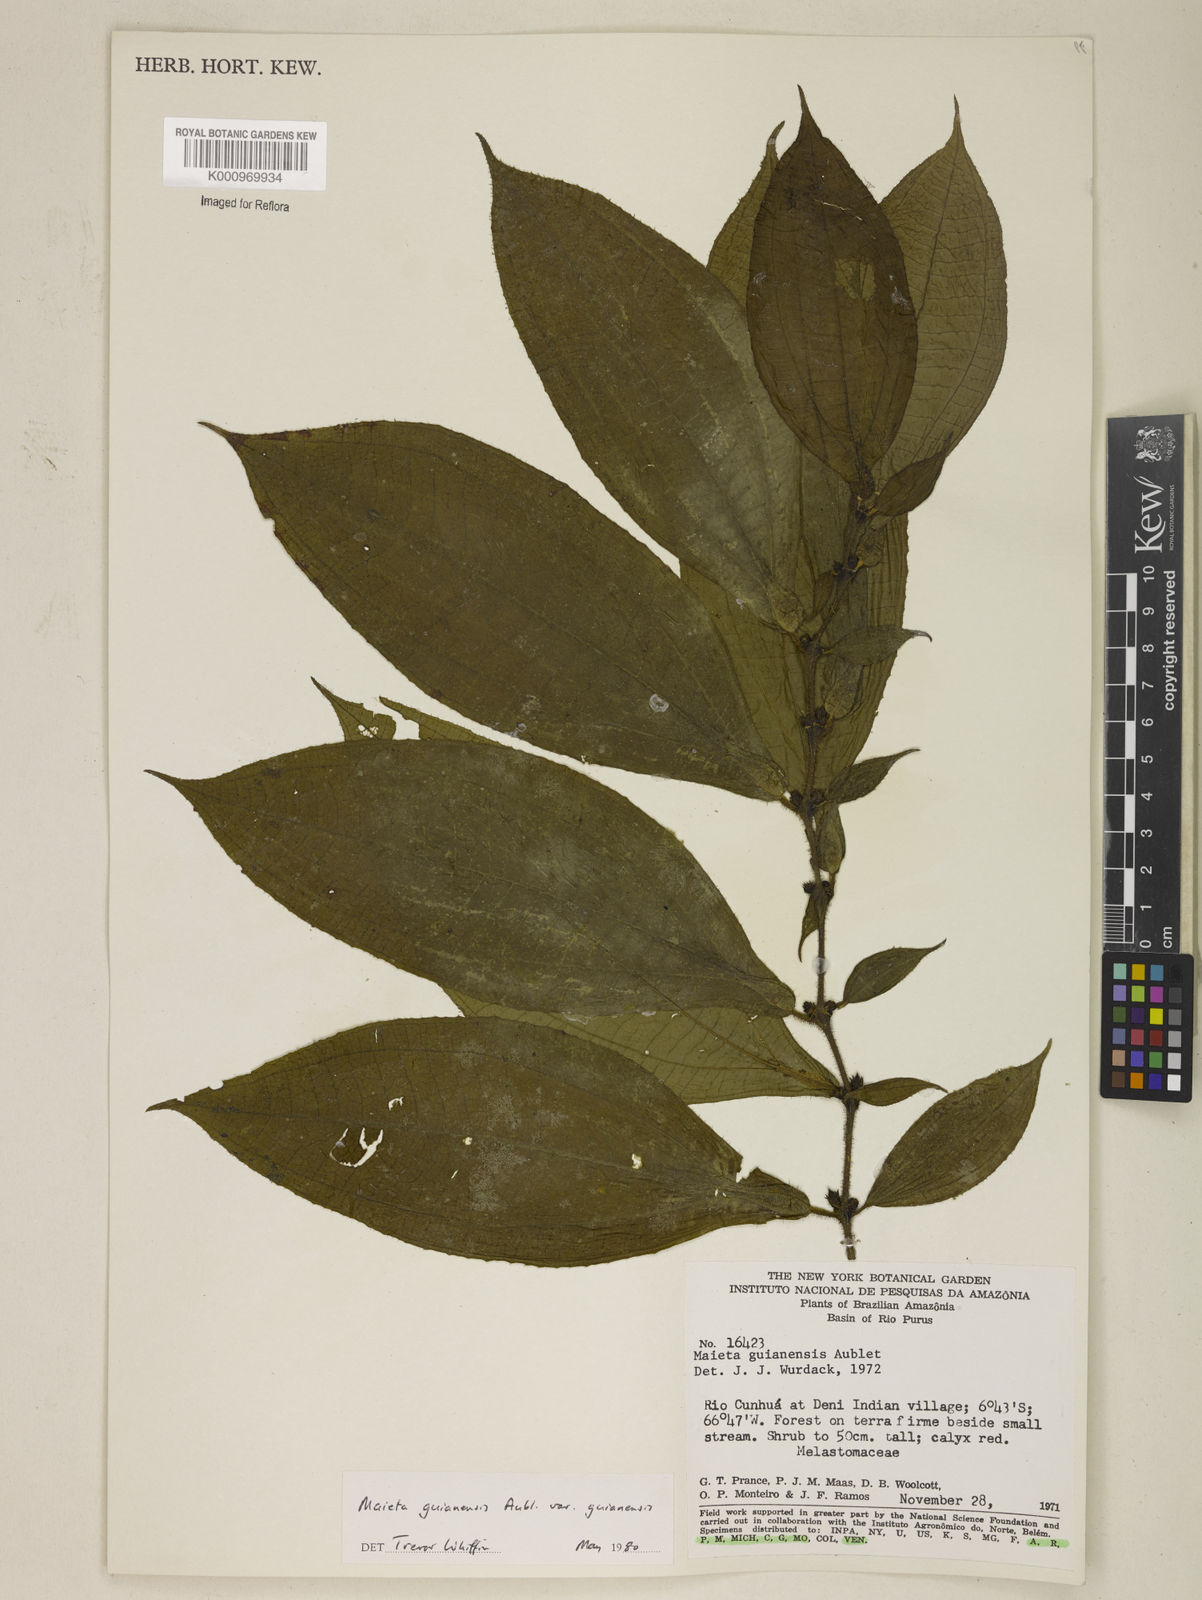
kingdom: Plantae
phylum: Tracheophyta
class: Magnoliopsida
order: Myrtales
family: Melastomataceae
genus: Miconia
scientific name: Miconia mayeta
